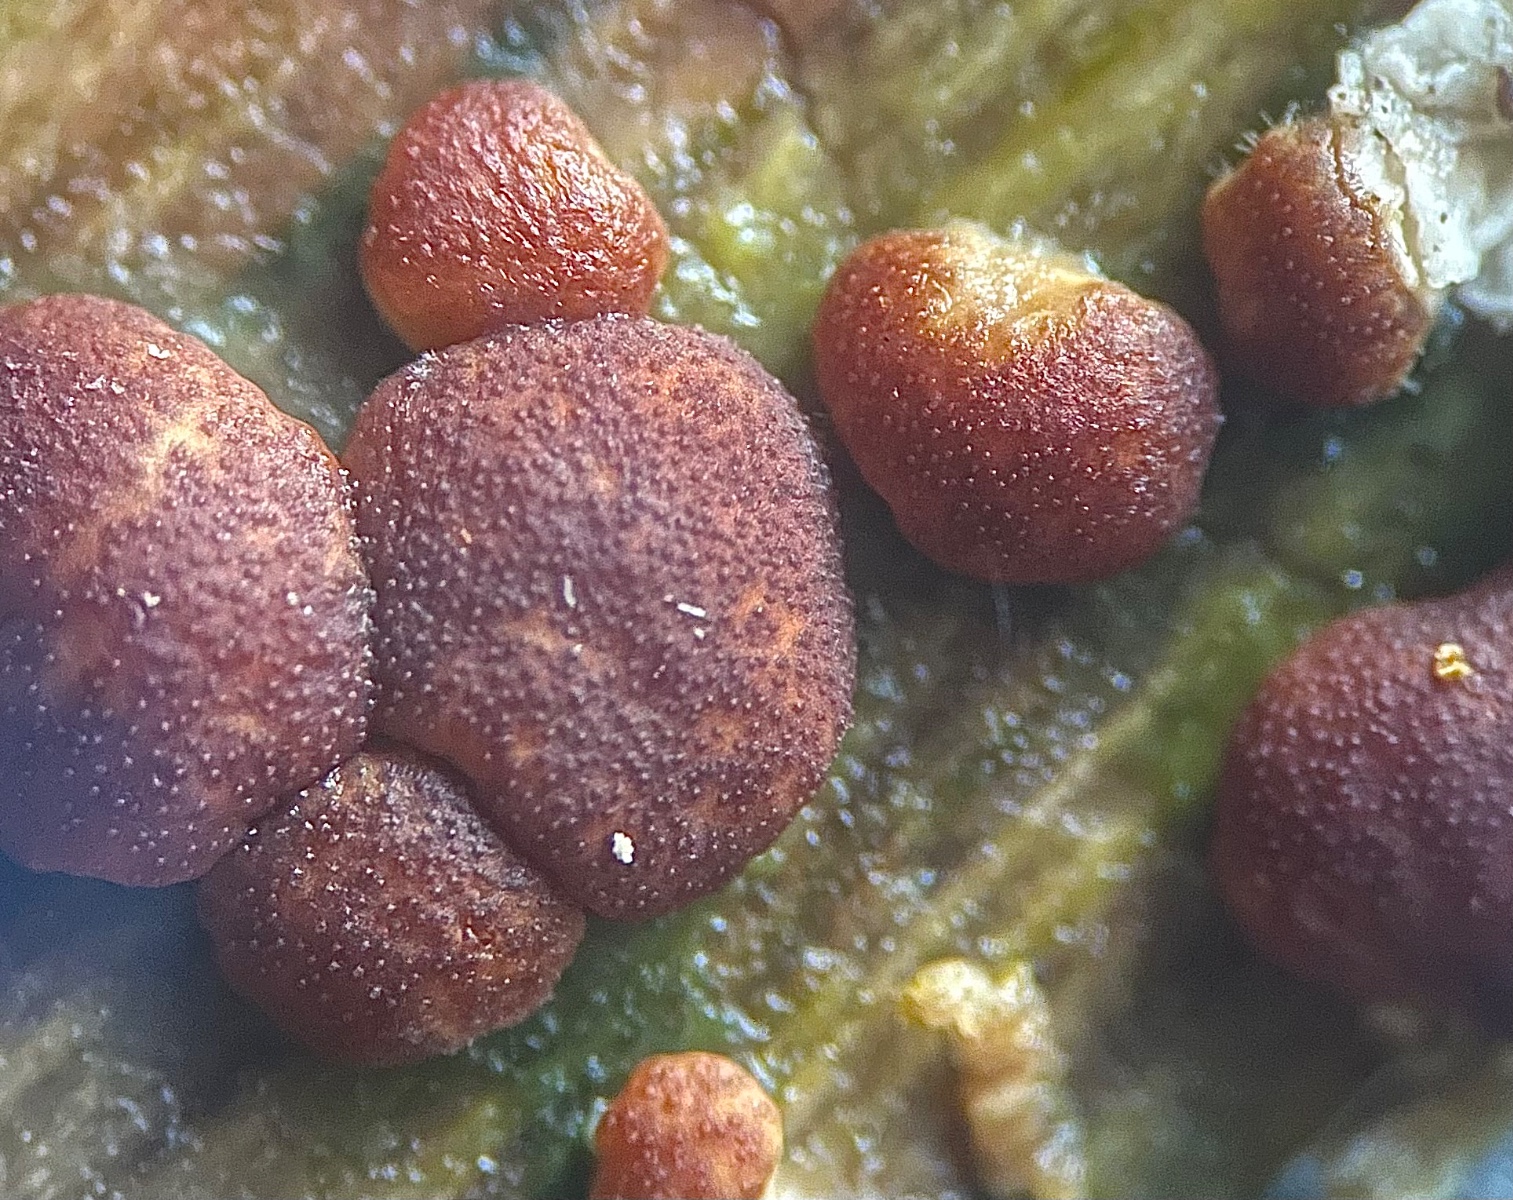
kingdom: Fungi
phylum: Ascomycota
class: Sordariomycetes
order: Hypocreales
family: Hypocreaceae
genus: Trichoderma
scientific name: Trichoderma
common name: kødkerne
